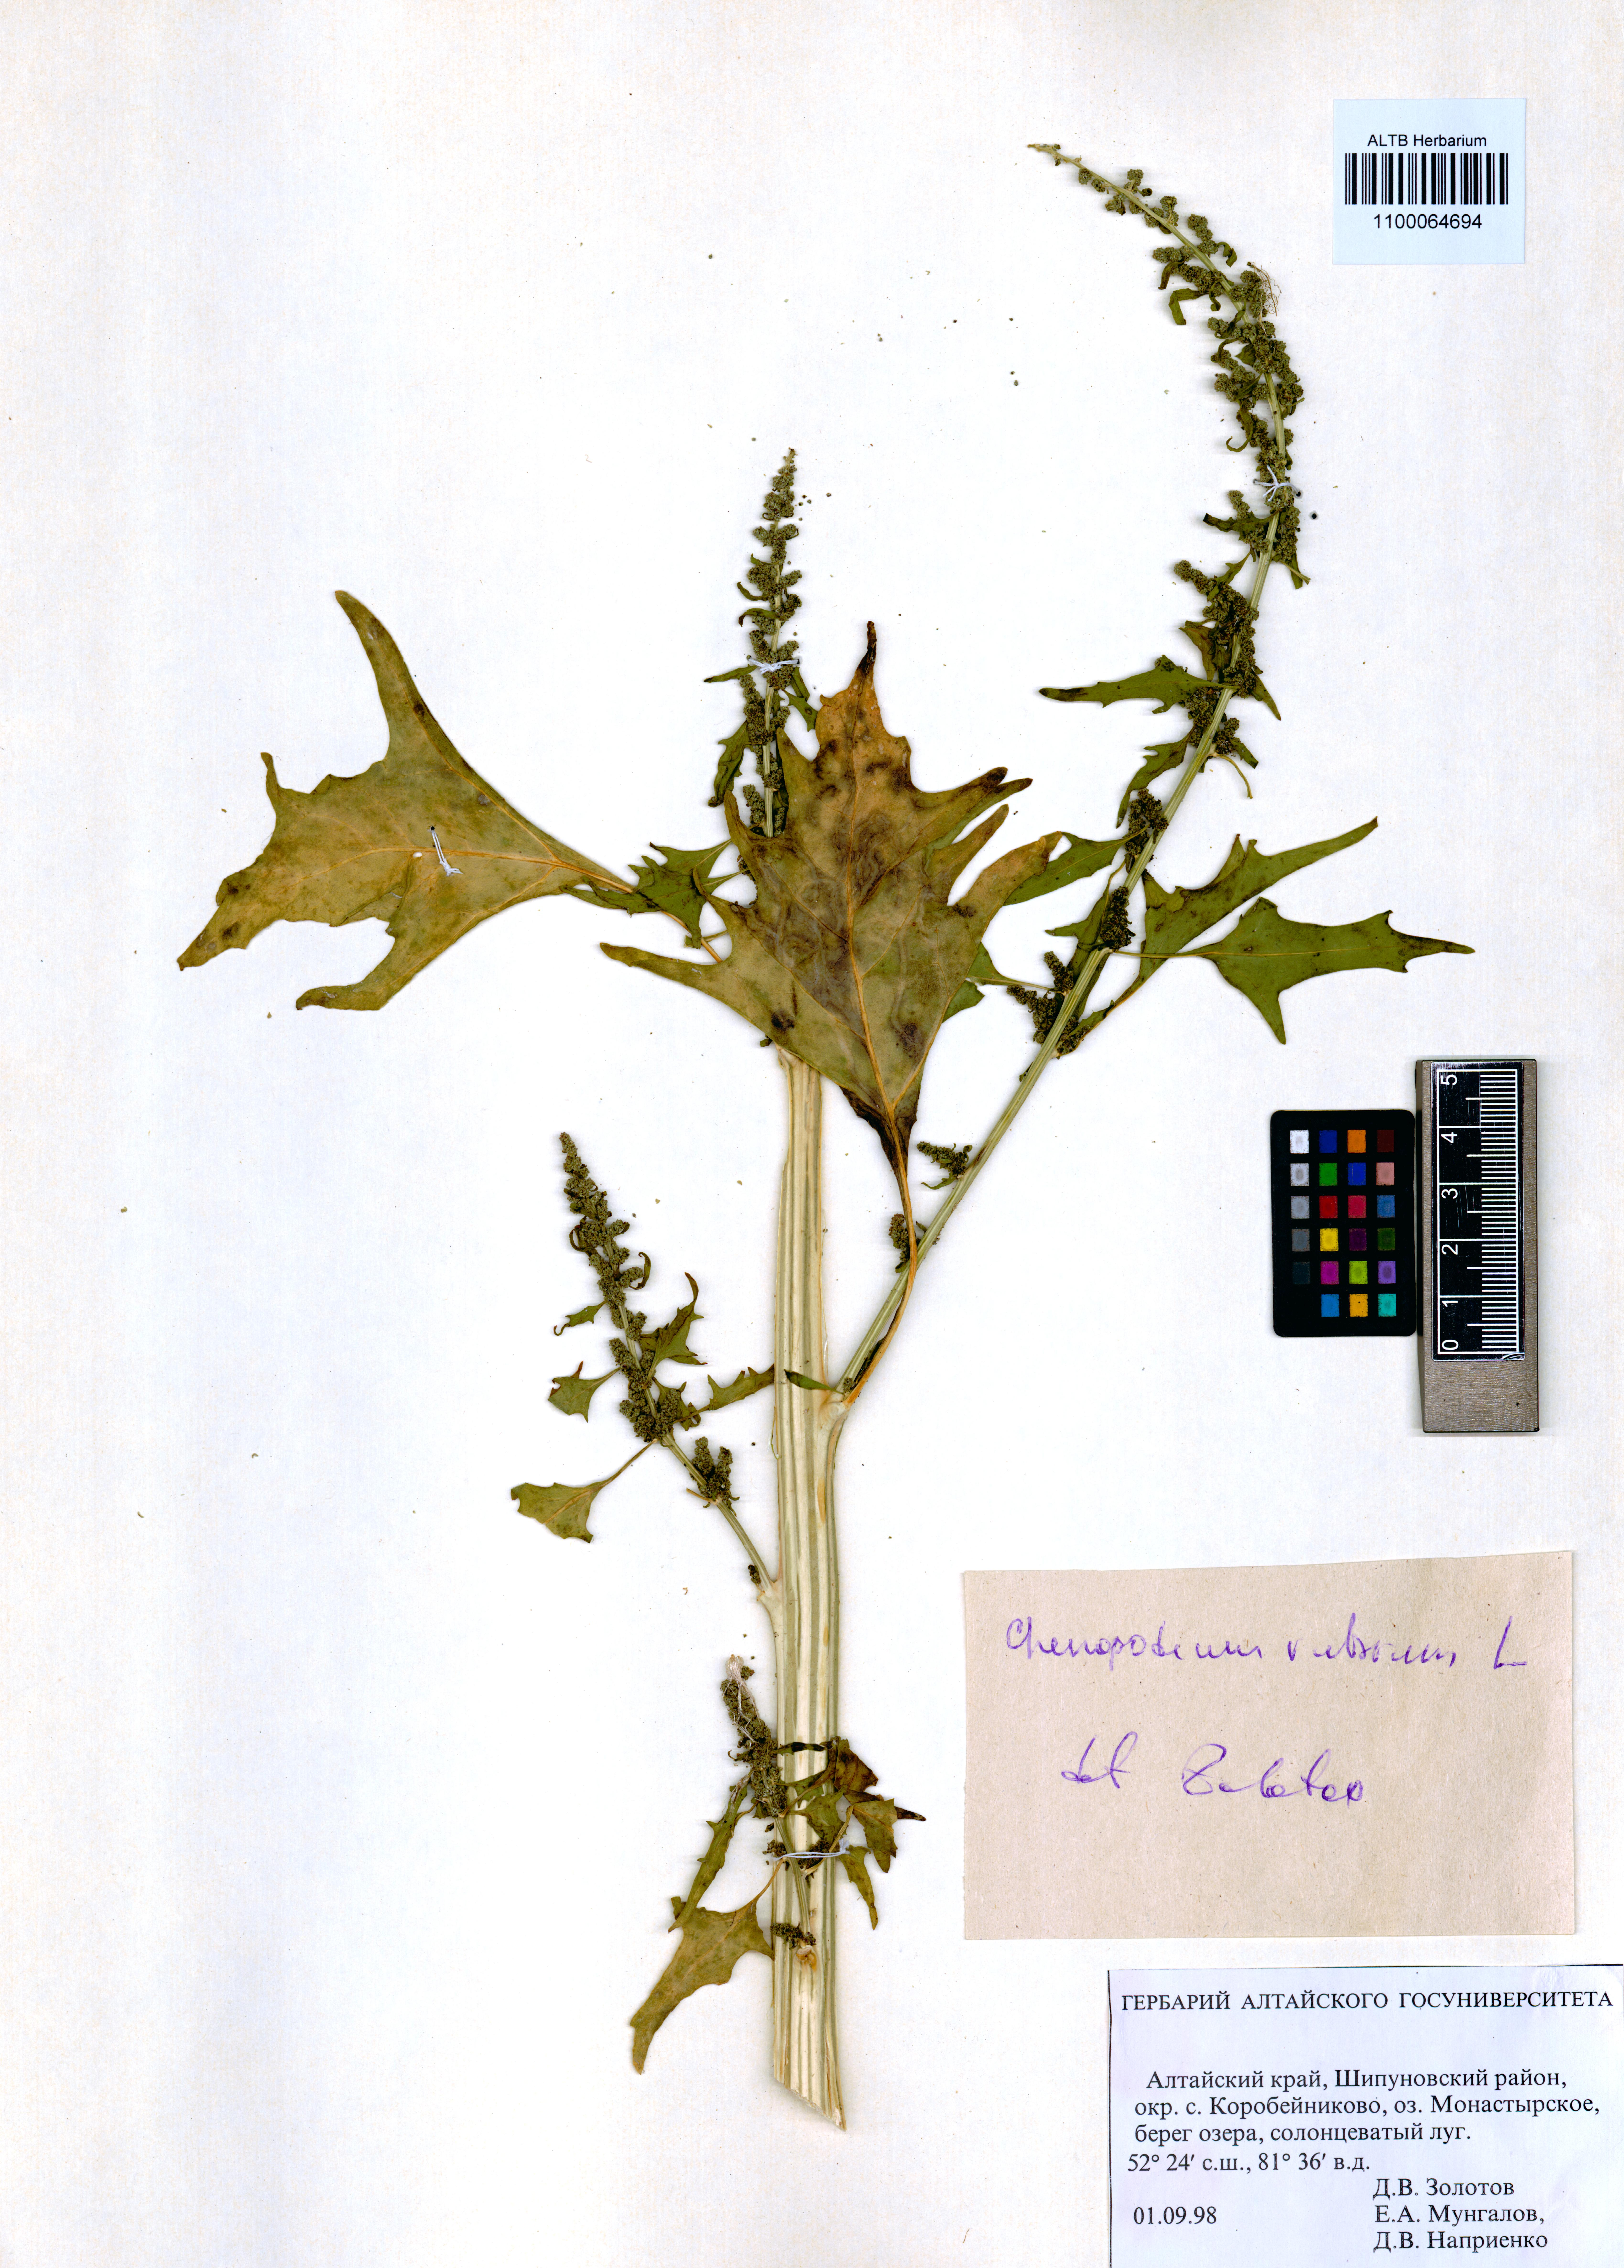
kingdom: Plantae
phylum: Tracheophyta
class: Magnoliopsida
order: Caryophyllales
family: Amaranthaceae
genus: Oxybasis
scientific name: Oxybasis rubra
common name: Red goosefoot
